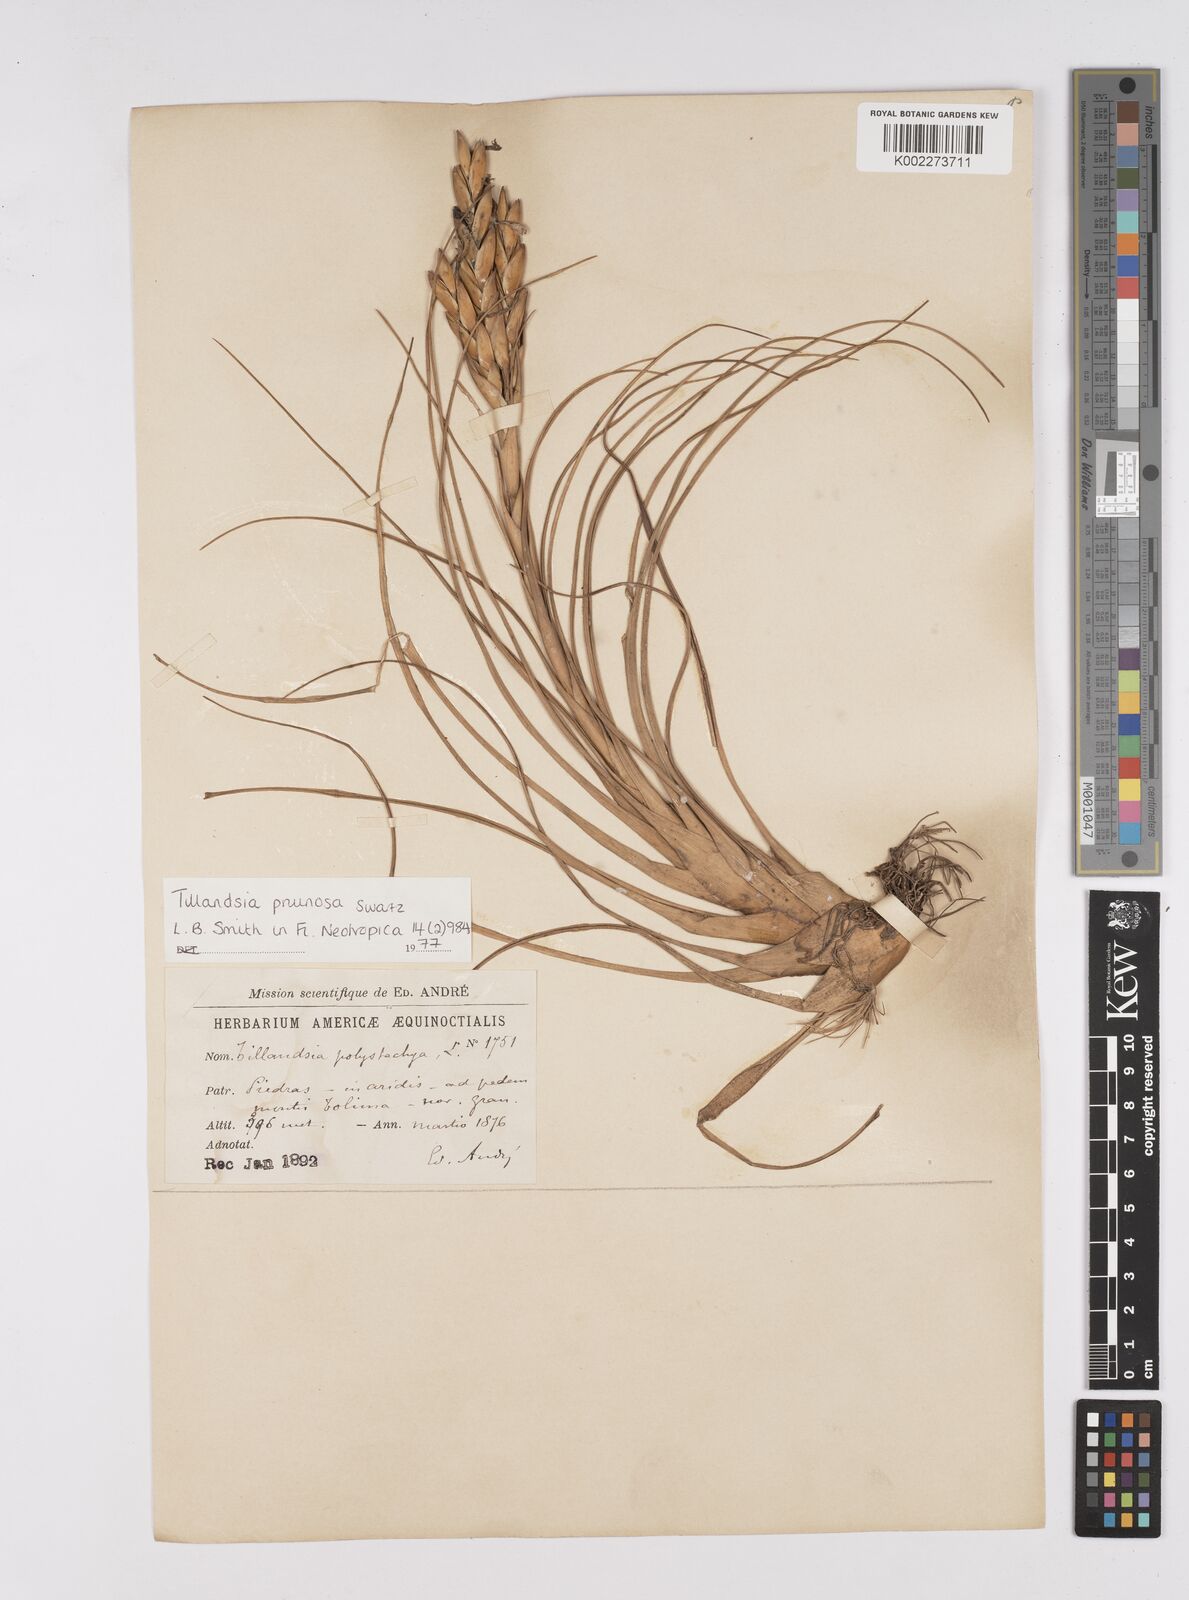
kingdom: Plantae
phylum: Tracheophyta
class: Liliopsida
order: Poales
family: Bromeliaceae
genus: Tillandsia
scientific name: Tillandsia pruinosa
